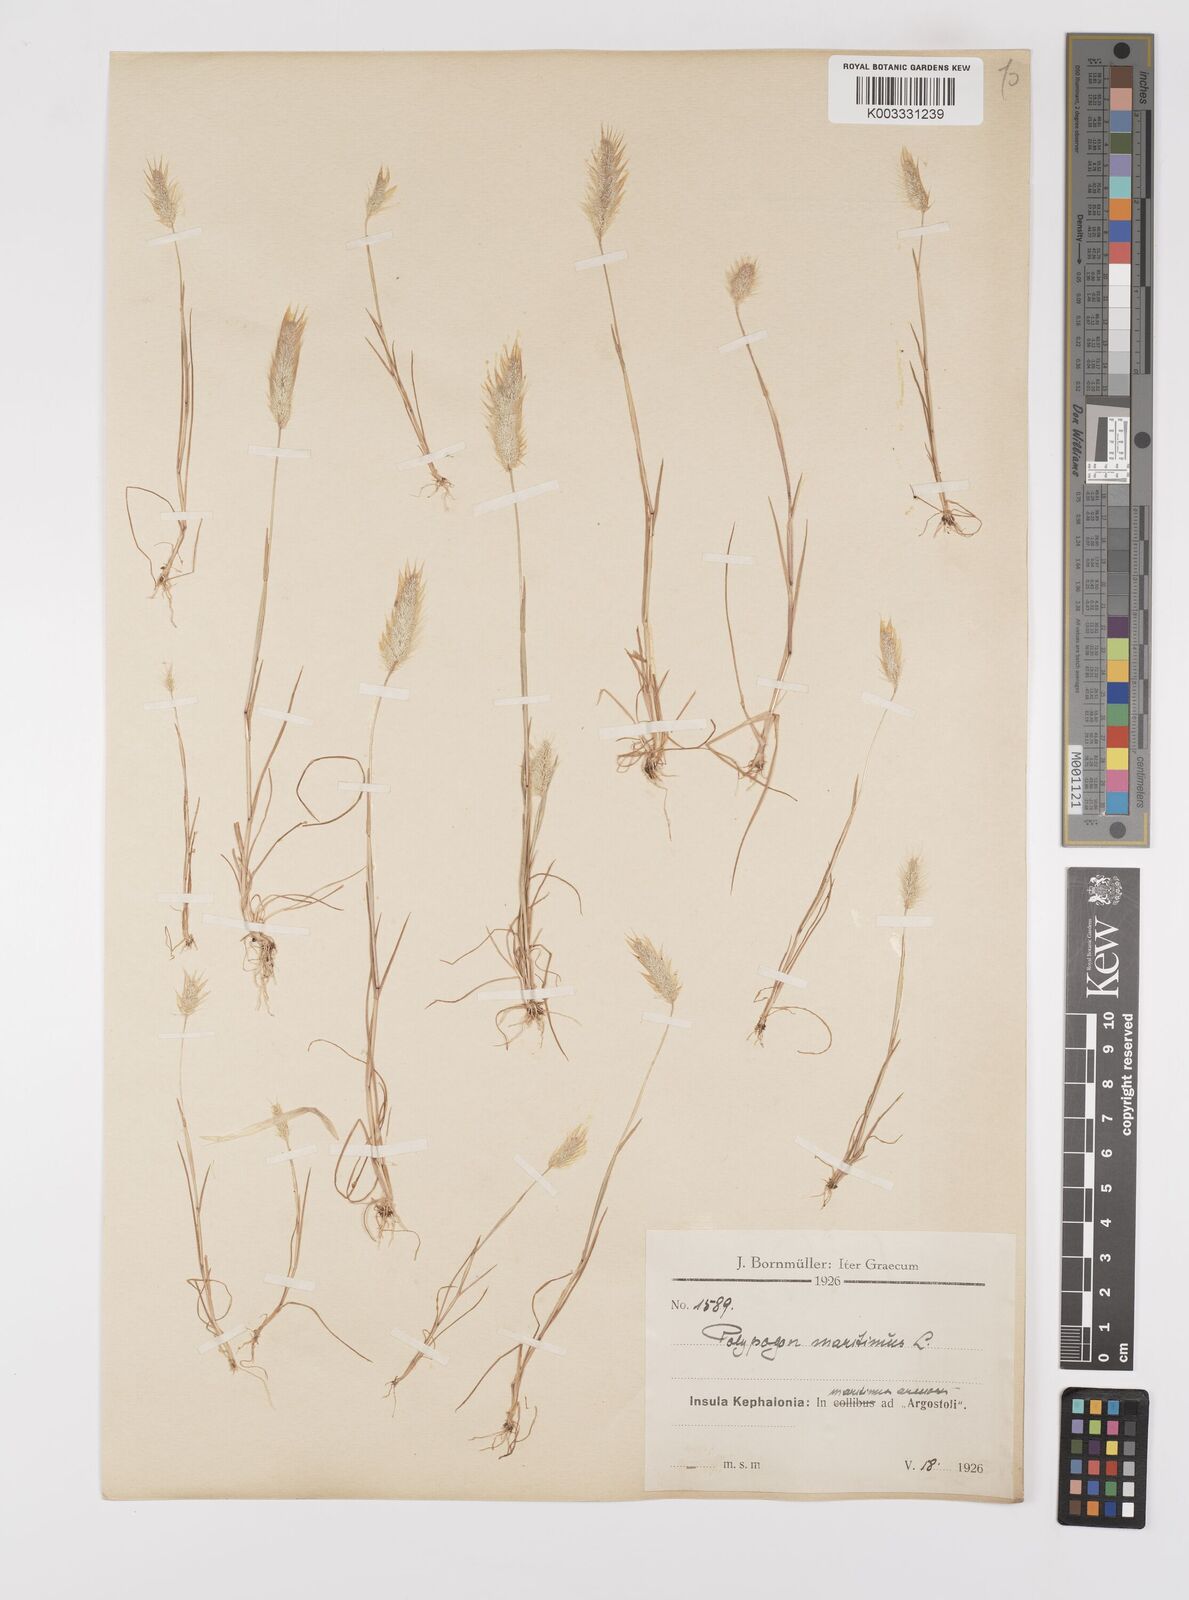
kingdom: Plantae
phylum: Tracheophyta
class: Liliopsida
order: Poales
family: Poaceae
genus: Polypogon
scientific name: Polypogon maritimus
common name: Mediterranean rabbitsfoot grass
